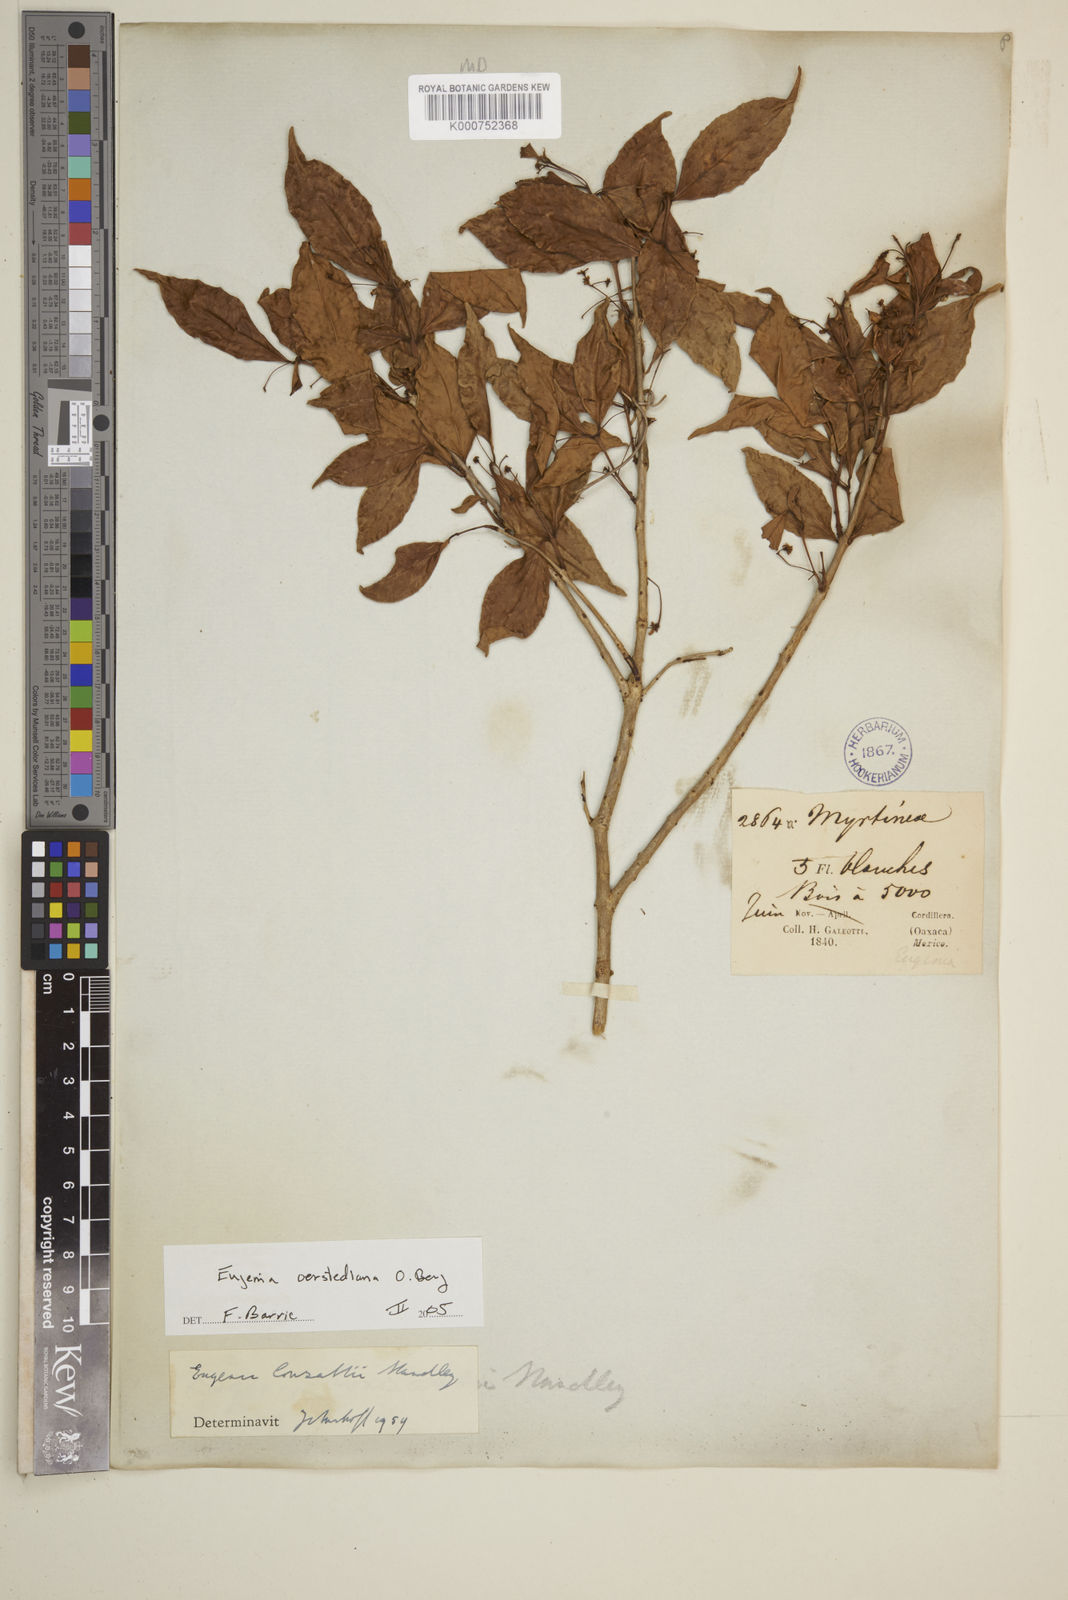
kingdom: Plantae
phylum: Tracheophyta
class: Magnoliopsida
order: Myrtales
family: Myrtaceae
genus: Eugenia
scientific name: Eugenia oerstediana
